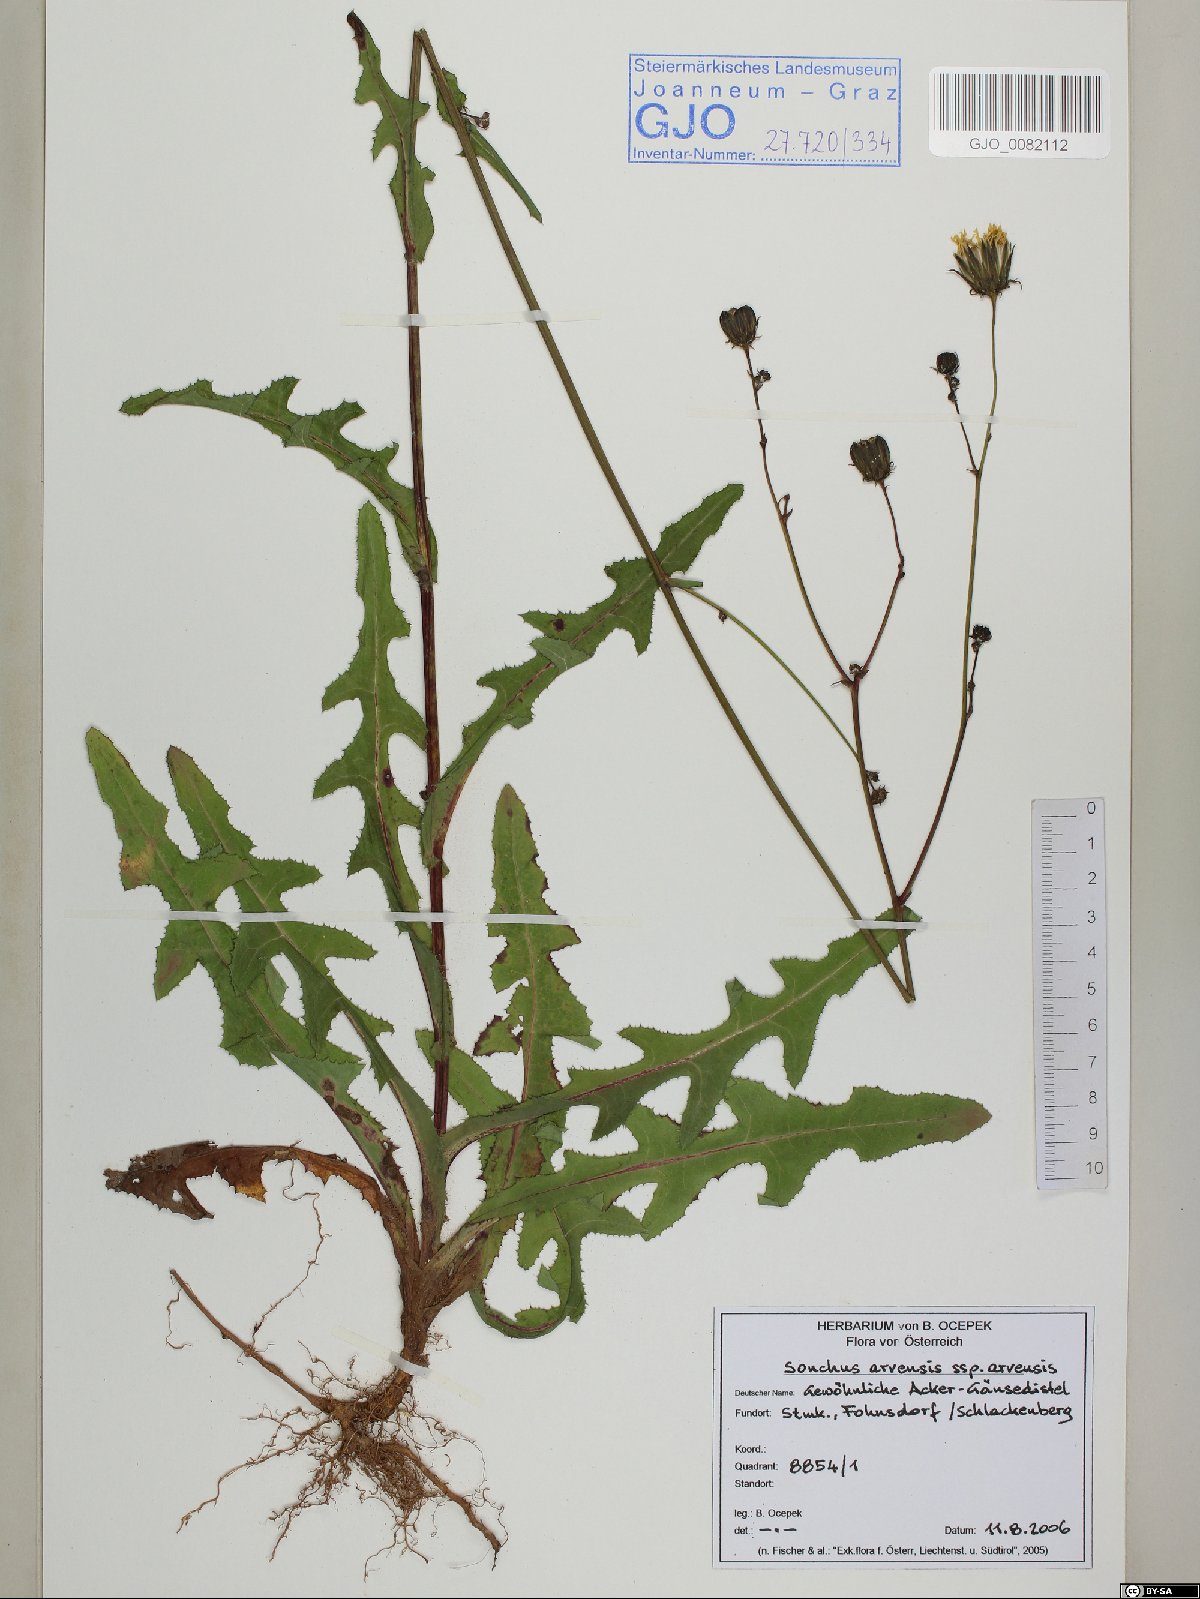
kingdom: Plantae
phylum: Tracheophyta
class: Magnoliopsida
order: Asterales
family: Asteraceae
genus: Sonchus
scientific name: Sonchus arvensis
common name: Perennial sow-thistle
